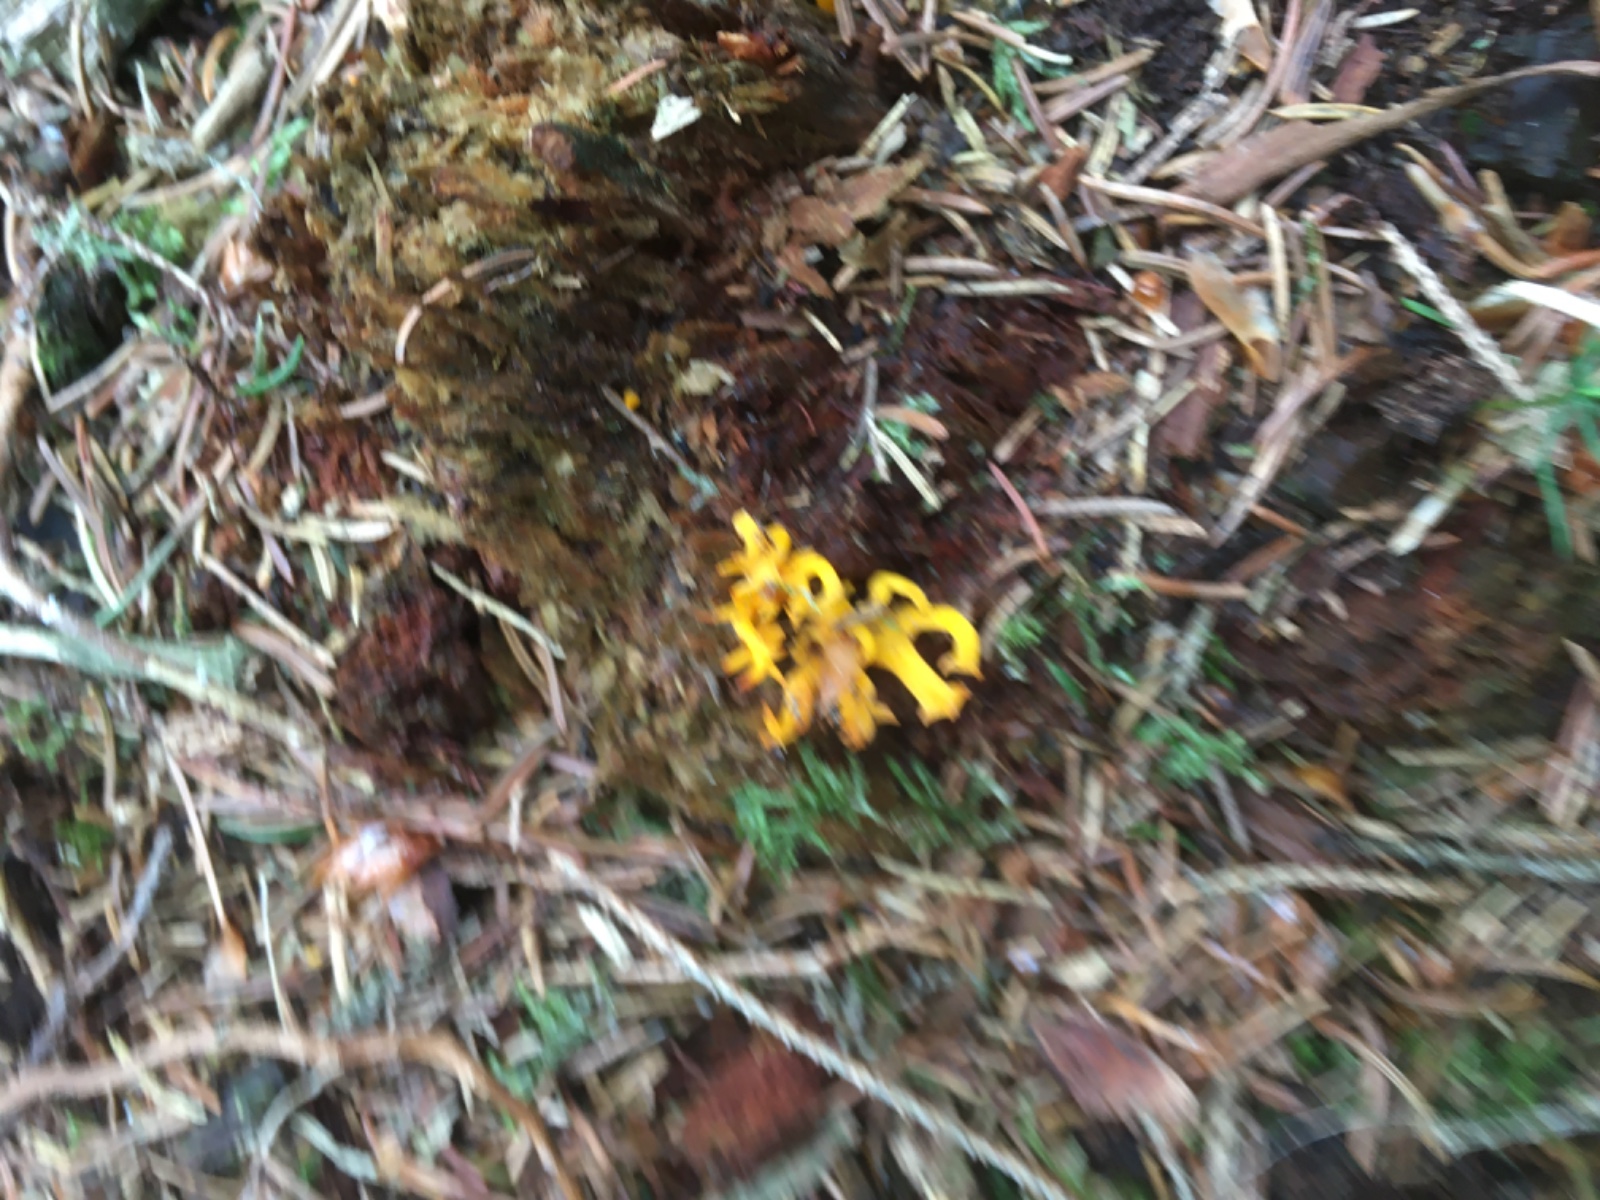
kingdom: Fungi
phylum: Basidiomycota
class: Dacrymycetes
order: Dacrymycetales
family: Dacrymycetaceae
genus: Calocera
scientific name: Calocera viscosa
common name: almindelig guldgaffel
